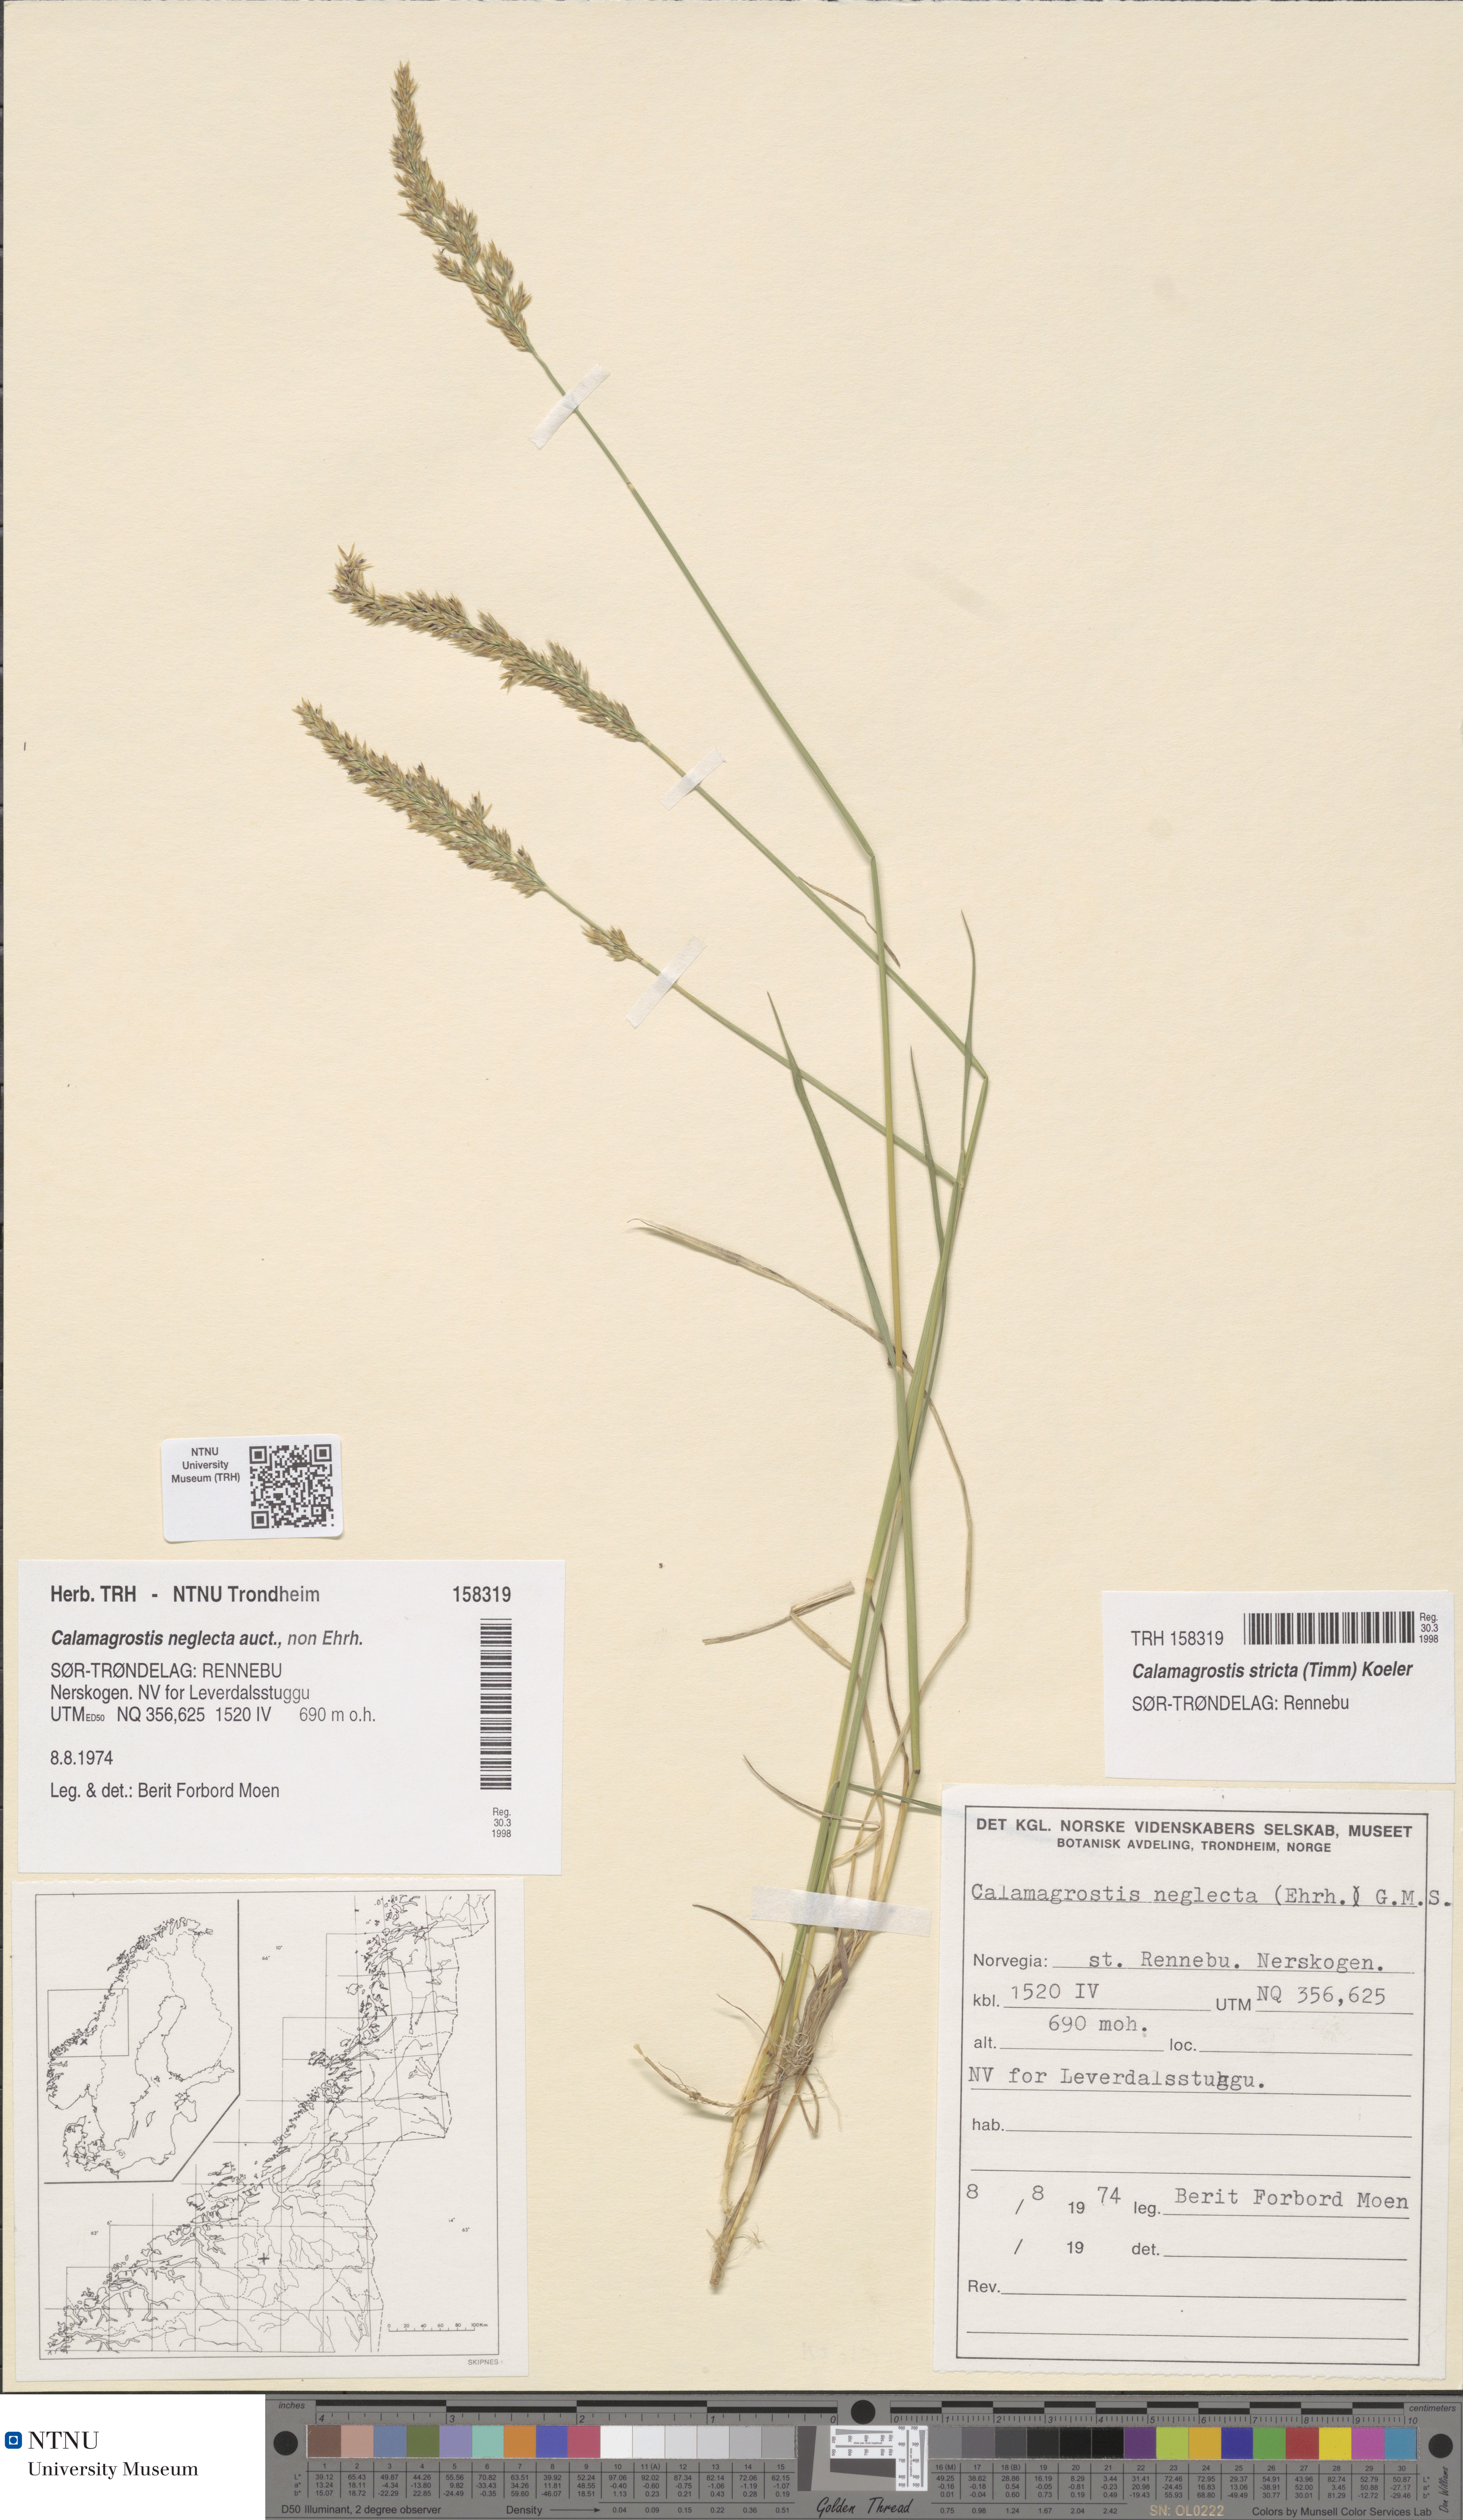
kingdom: Plantae
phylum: Tracheophyta
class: Liliopsida
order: Poales
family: Poaceae
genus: Achnatherum
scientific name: Achnatherum calamagrostis
